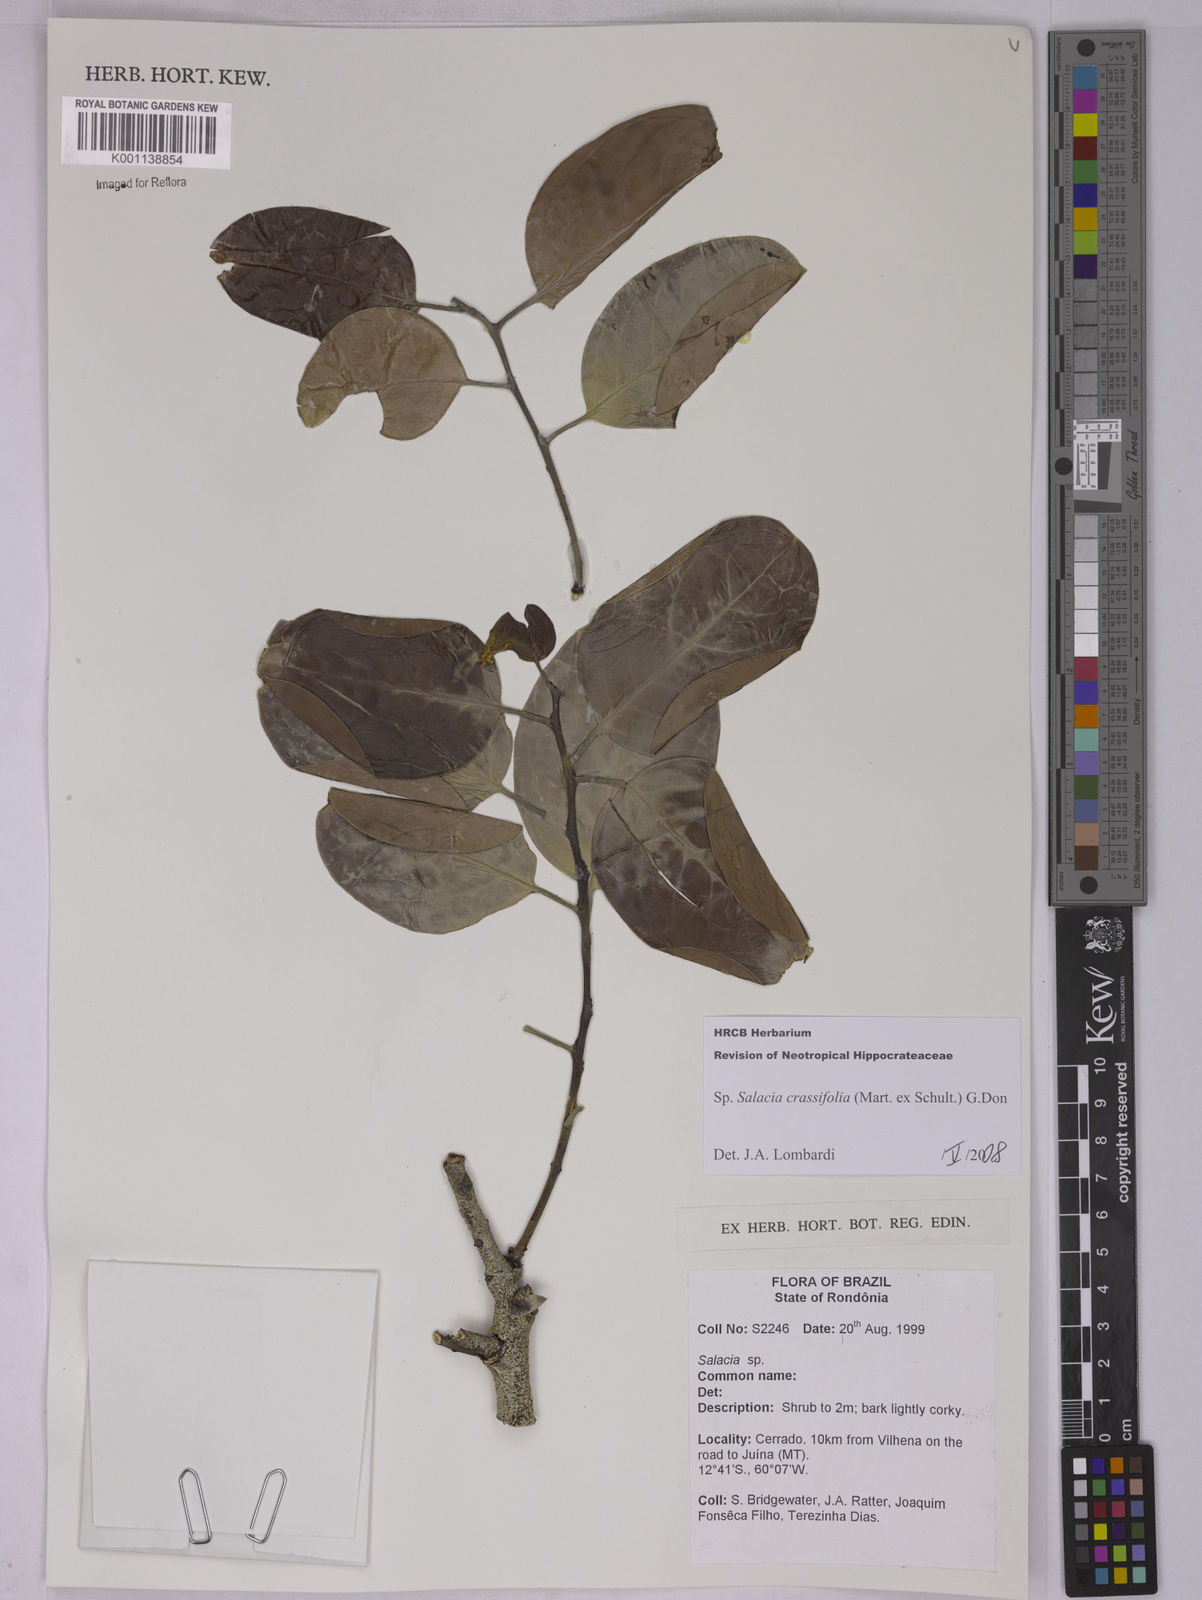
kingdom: Plantae
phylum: Tracheophyta
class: Magnoliopsida
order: Celastrales
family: Celastraceae
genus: Salacia
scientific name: Salacia crassifolia
